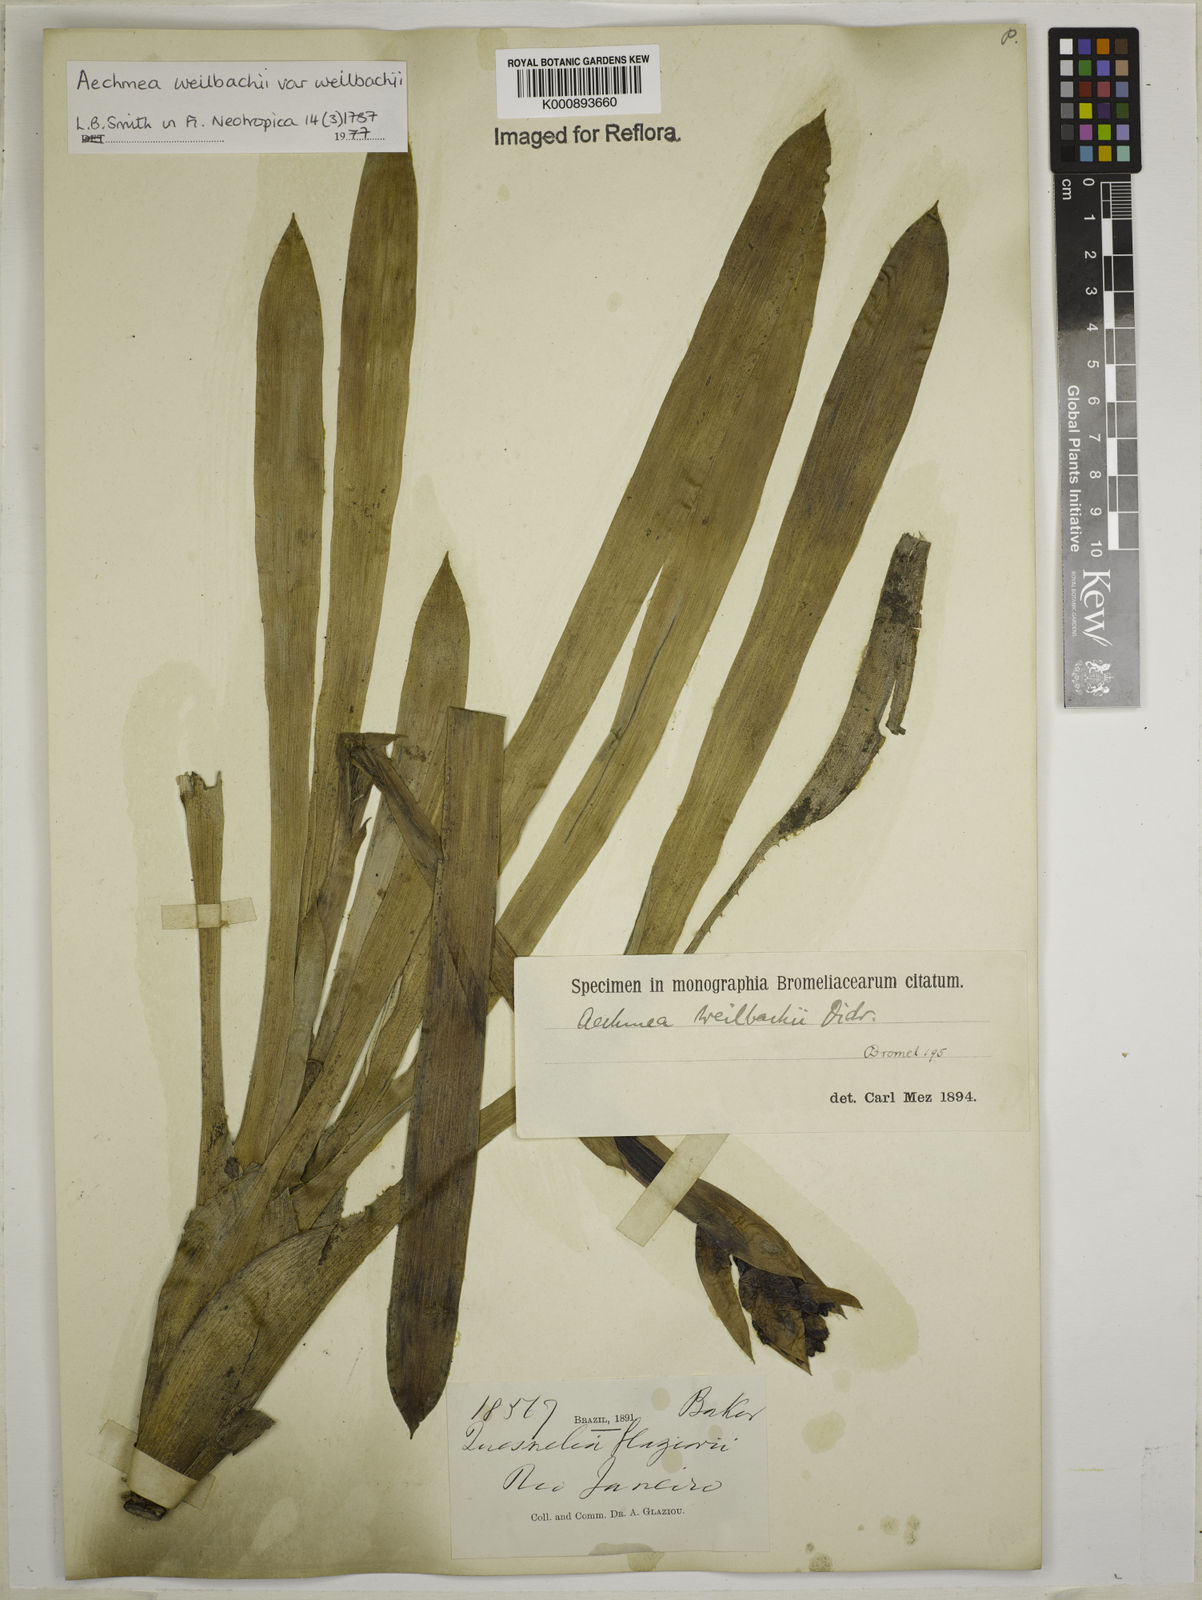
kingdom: Plantae
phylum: Tracheophyta
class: Liliopsida
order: Poales
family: Bromeliaceae
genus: Aechmea
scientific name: Aechmea weilbachii
